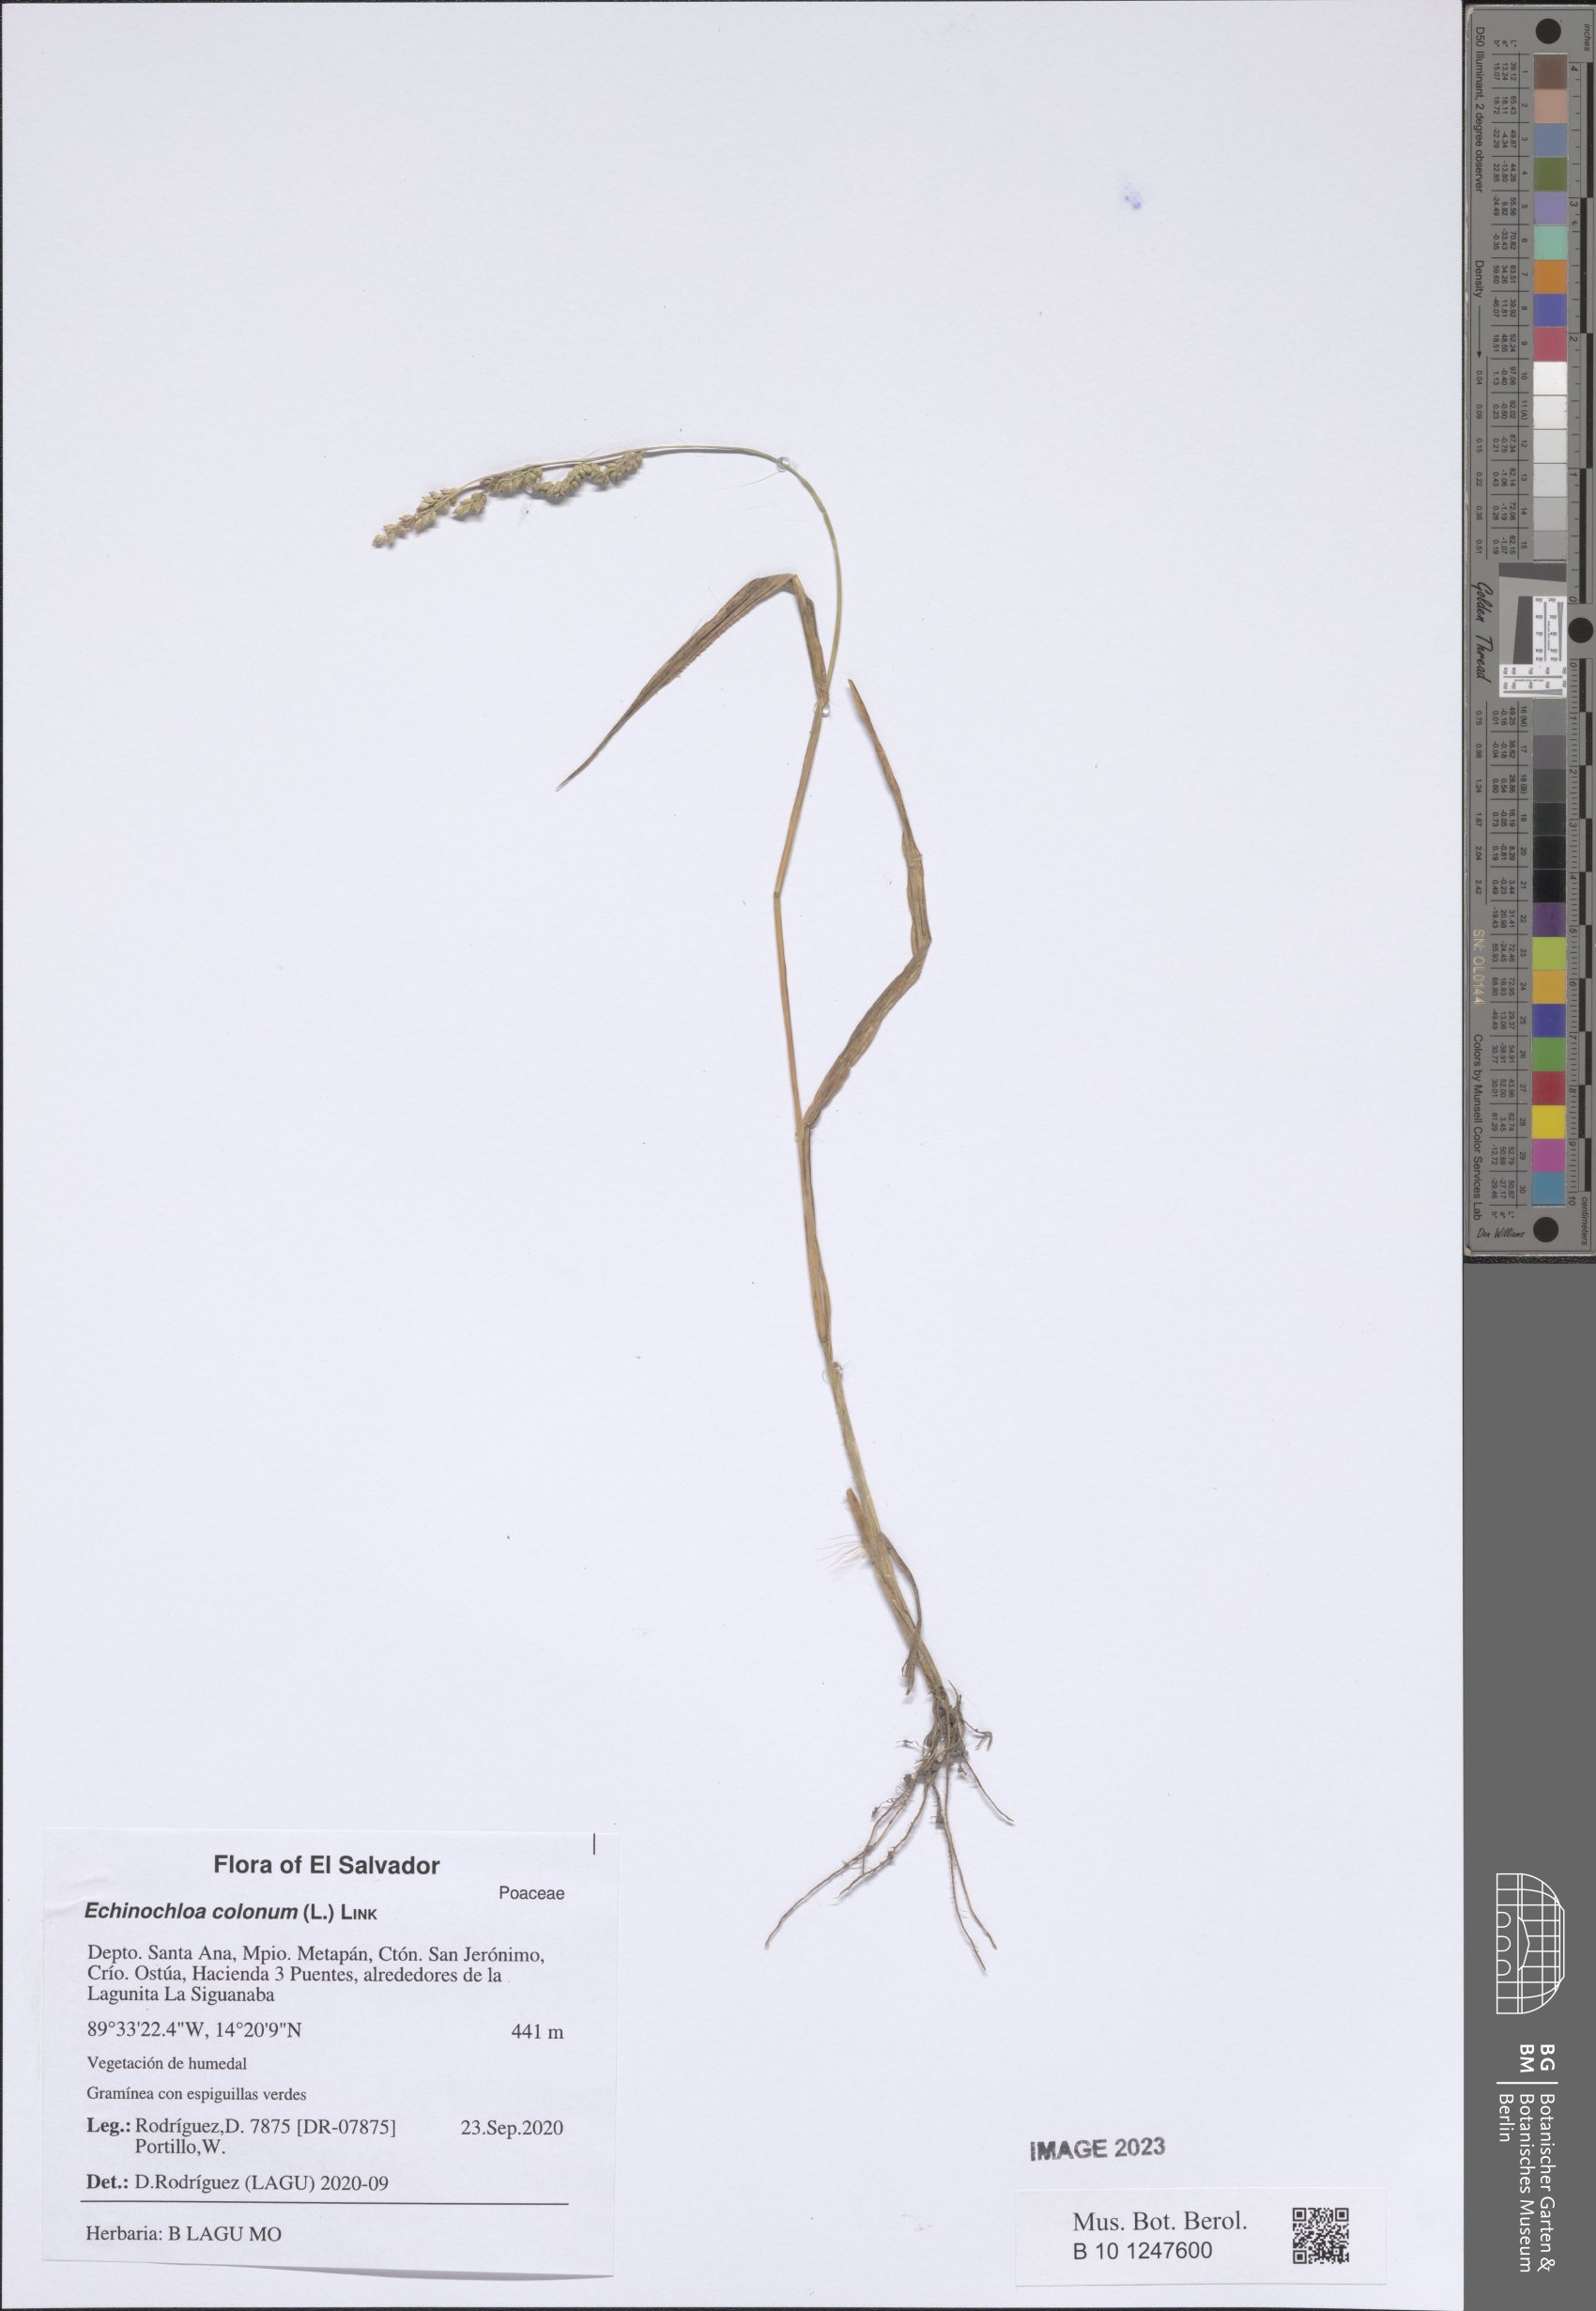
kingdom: Plantae
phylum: Tracheophyta
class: Liliopsida
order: Poales
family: Poaceae
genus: Echinochloa
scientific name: Echinochloa colonum
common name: Jungle rice
